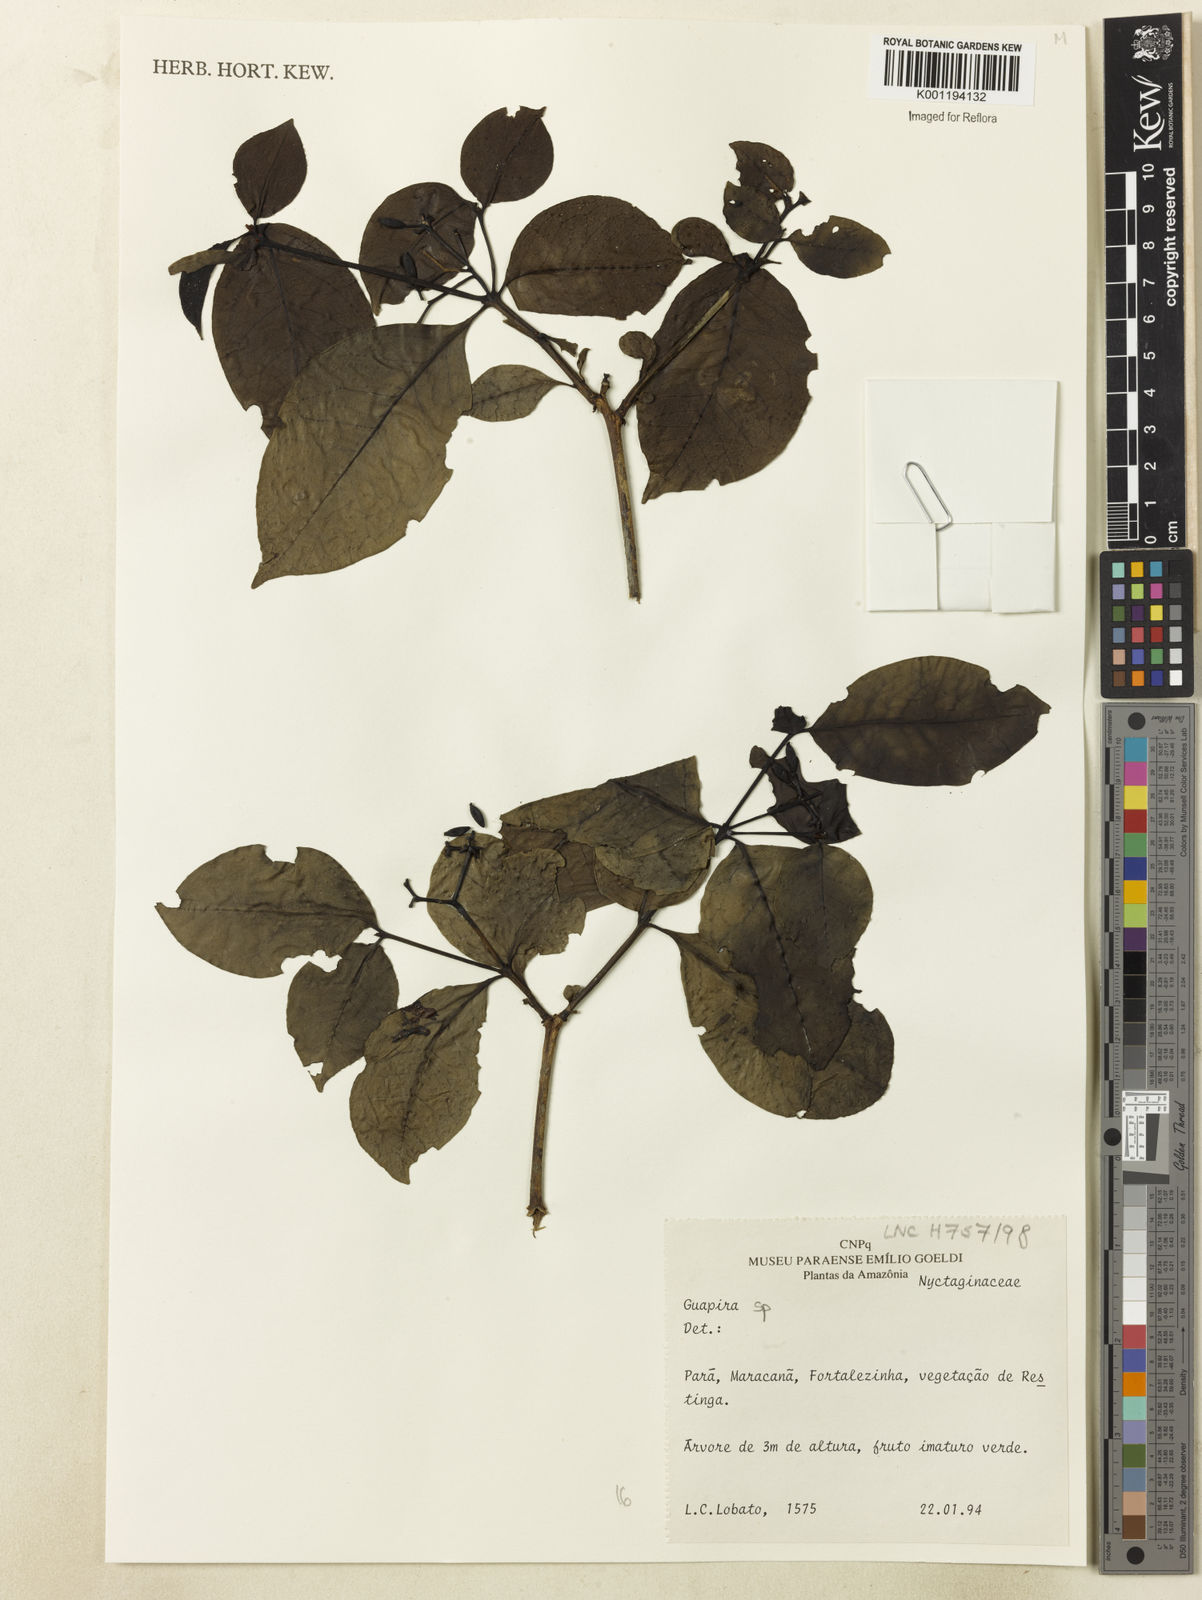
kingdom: Plantae
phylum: Tracheophyta
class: Magnoliopsida
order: Caryophyllales
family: Nyctaginaceae
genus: Guapira
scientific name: Guapira
